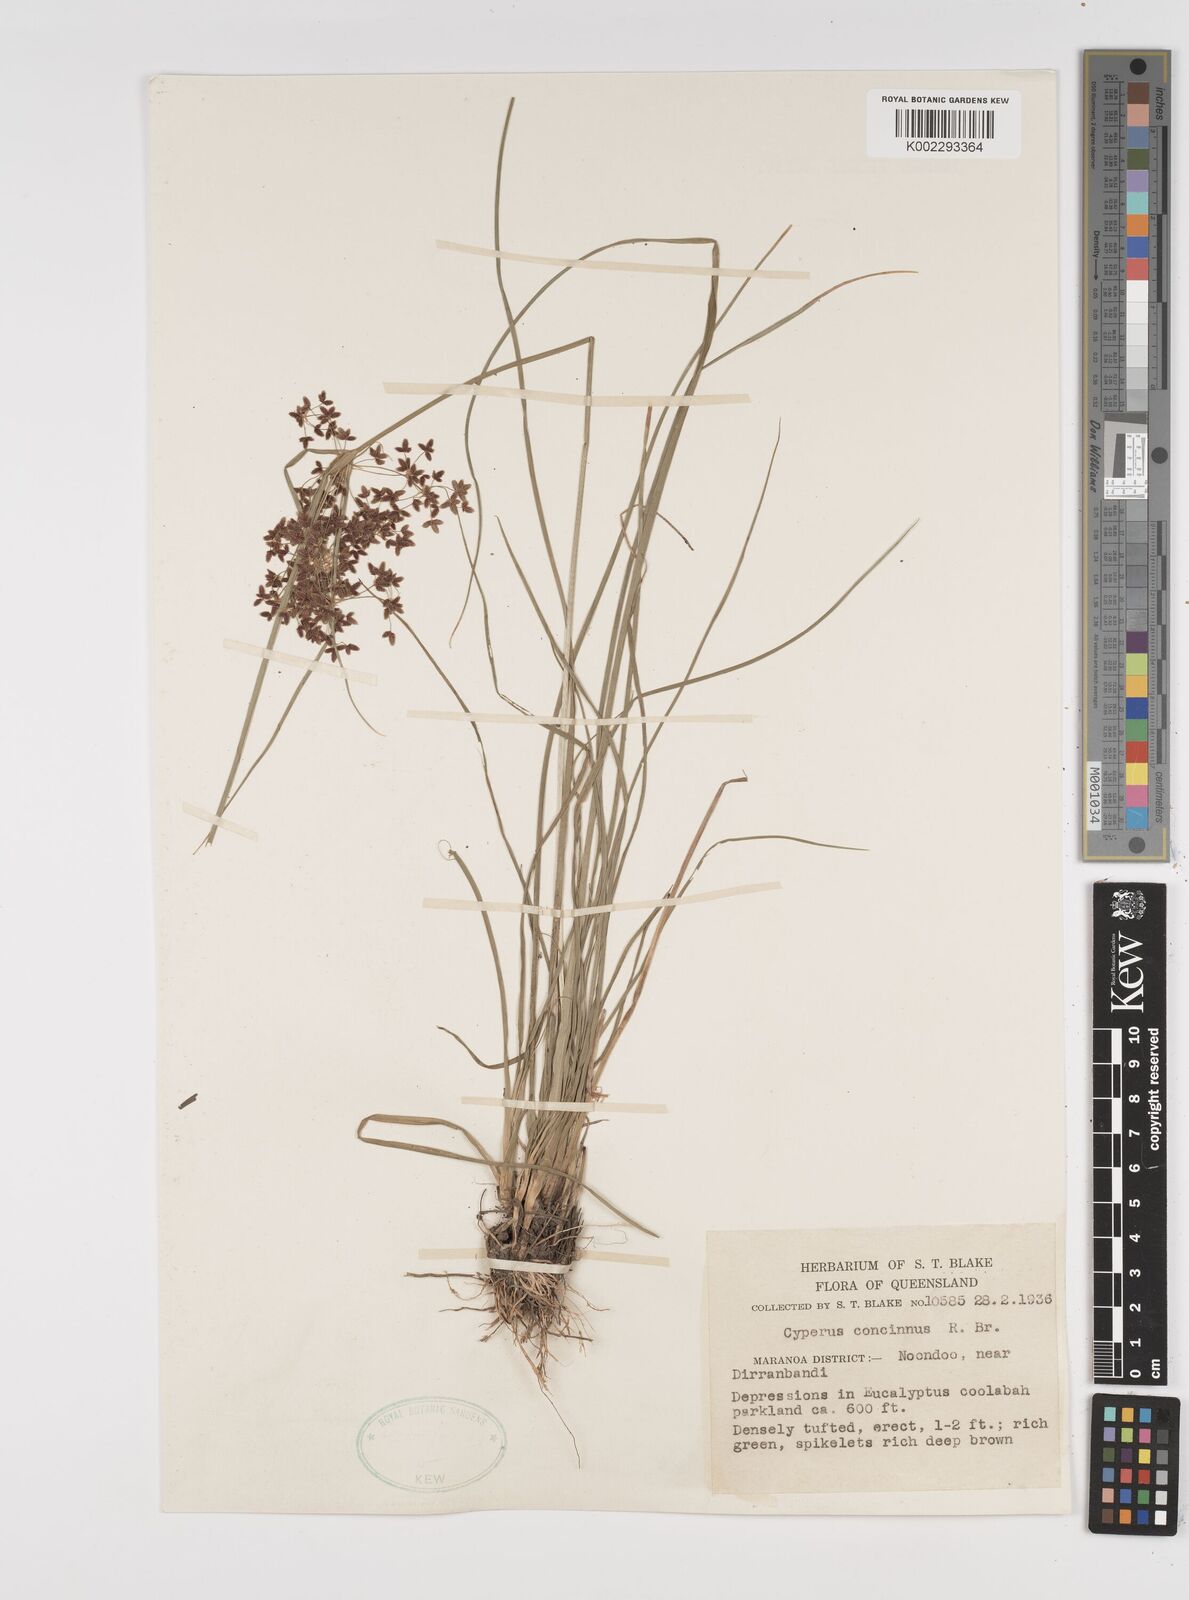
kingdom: Plantae
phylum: Tracheophyta
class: Liliopsida
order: Poales
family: Cyperaceae
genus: Cyperus
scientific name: Cyperus concinnus
